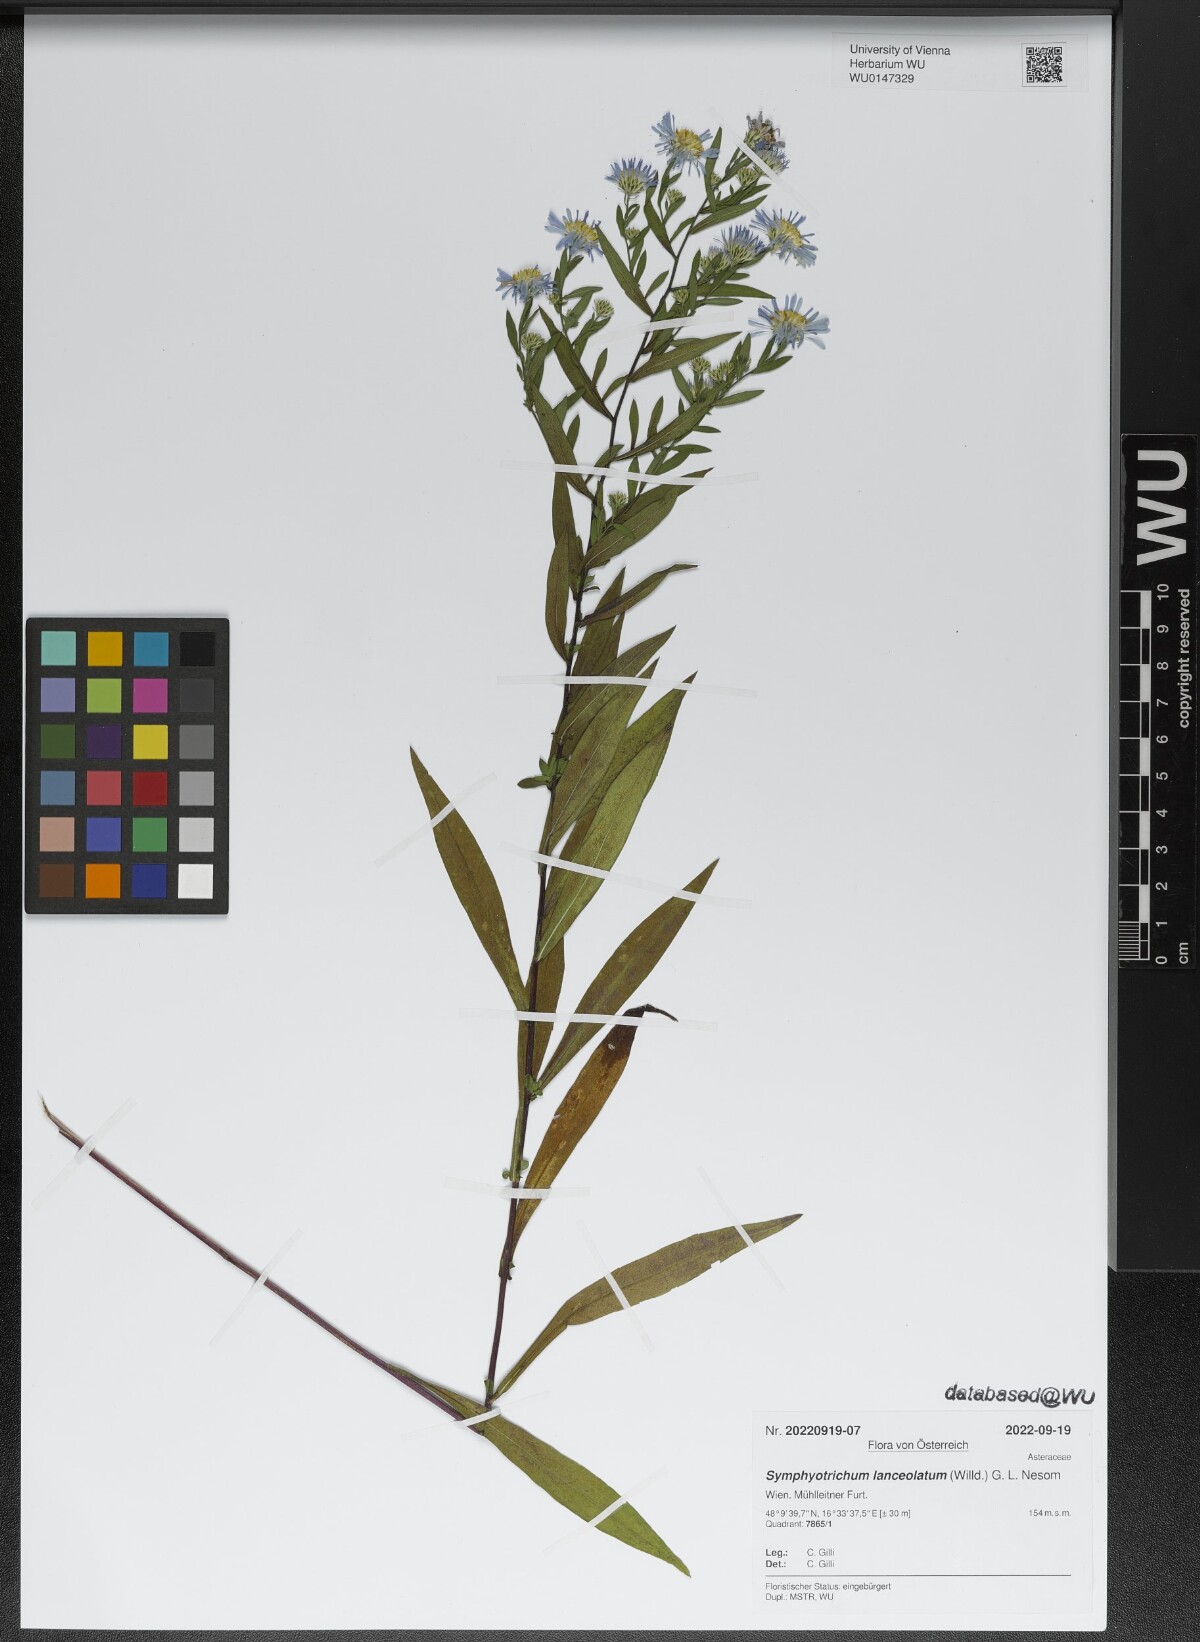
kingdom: Plantae
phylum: Tracheophyta
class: Magnoliopsida
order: Asterales
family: Asteraceae
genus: Symphyotrichum
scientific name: Symphyotrichum lanceolatum
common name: Panicled aster
